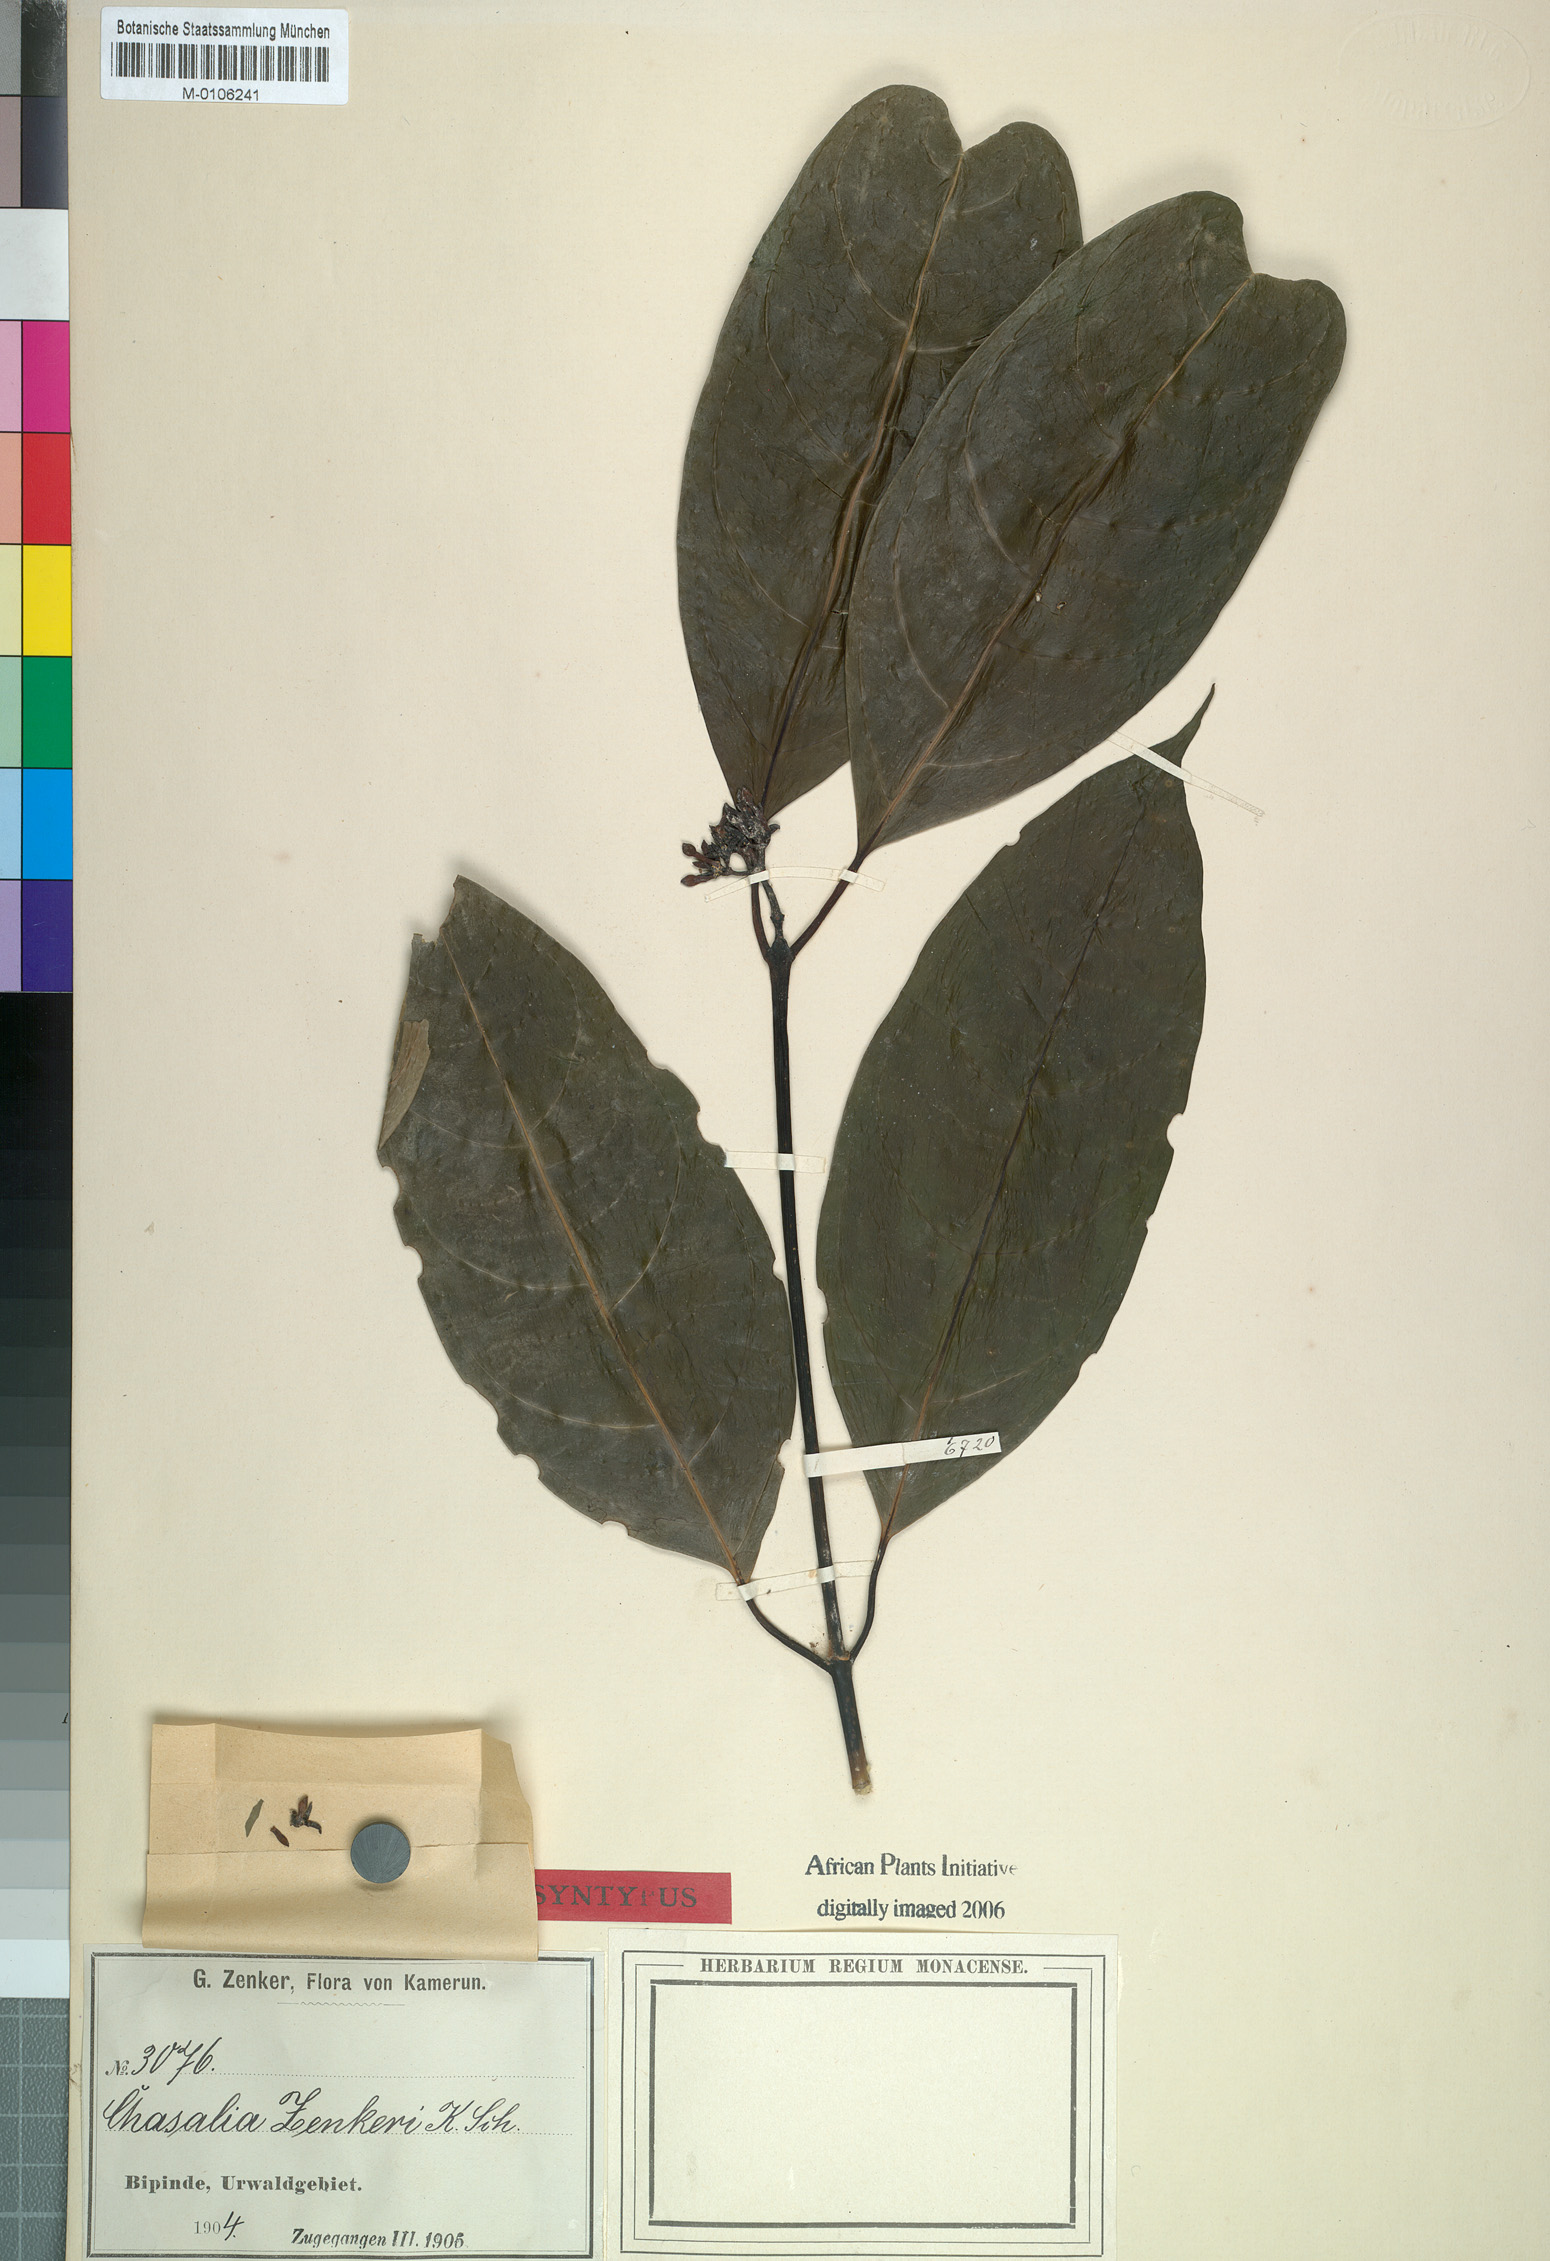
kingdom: Plantae
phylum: Tracheophyta
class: Magnoliopsida
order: Gentianales
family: Rubiaceae
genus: Chassalia
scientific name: Chassalia zenkeri
